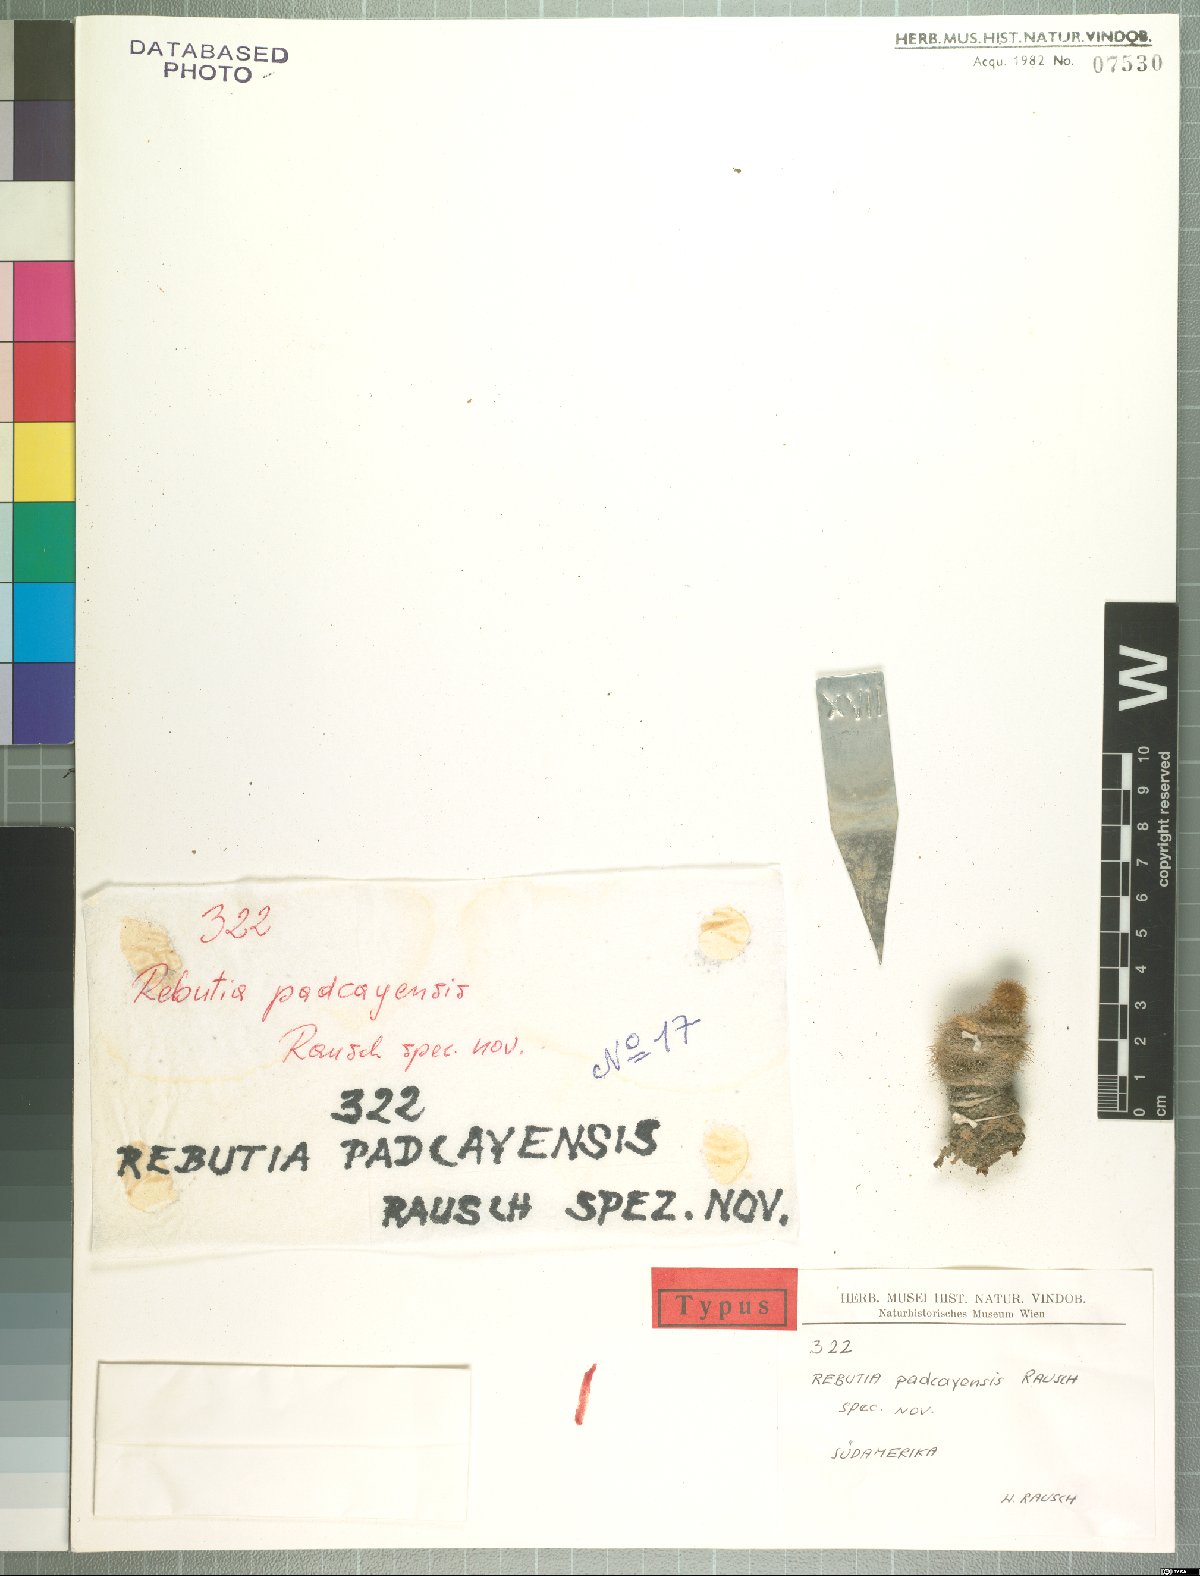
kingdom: Plantae
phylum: Tracheophyta
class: Magnoliopsida
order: Caryophyllales
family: Cactaceae
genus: Weingartia
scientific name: Weingartia margarethae
